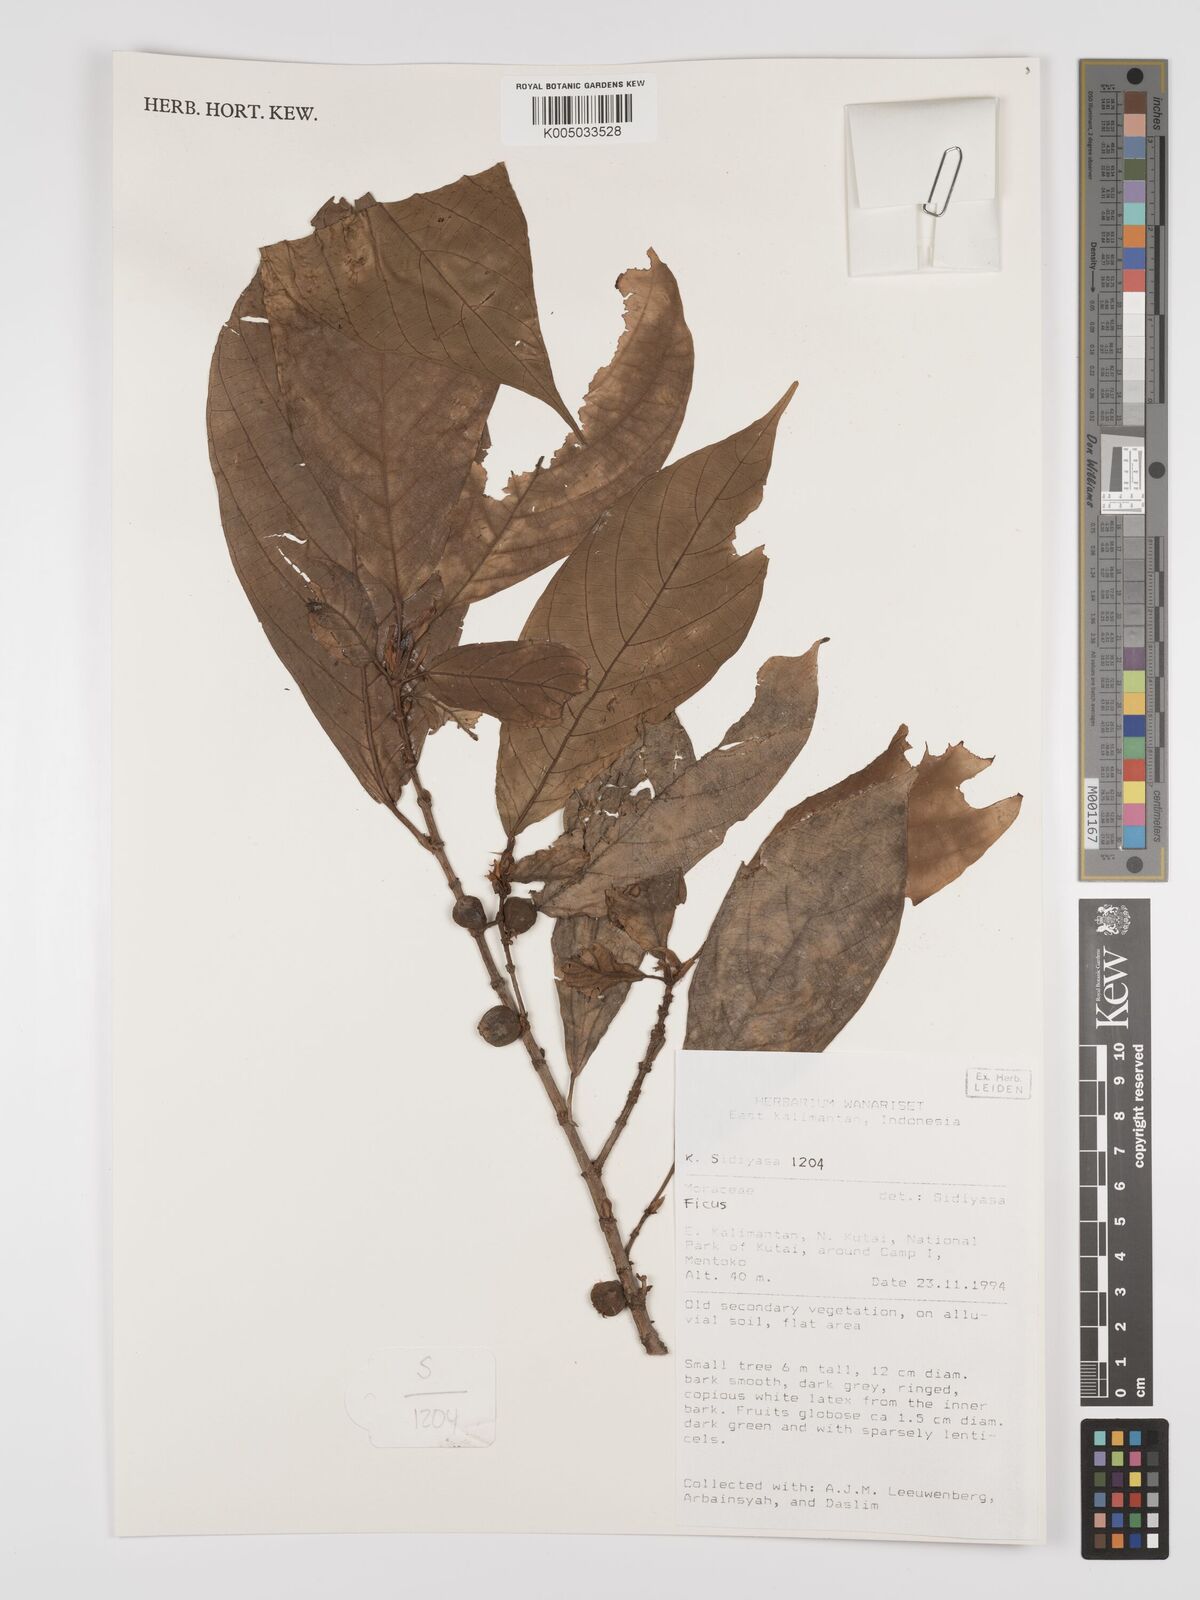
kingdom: Plantae
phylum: Tracheophyta
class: Magnoliopsida
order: Rosales
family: Moraceae
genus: Ficus
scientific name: Ficus
